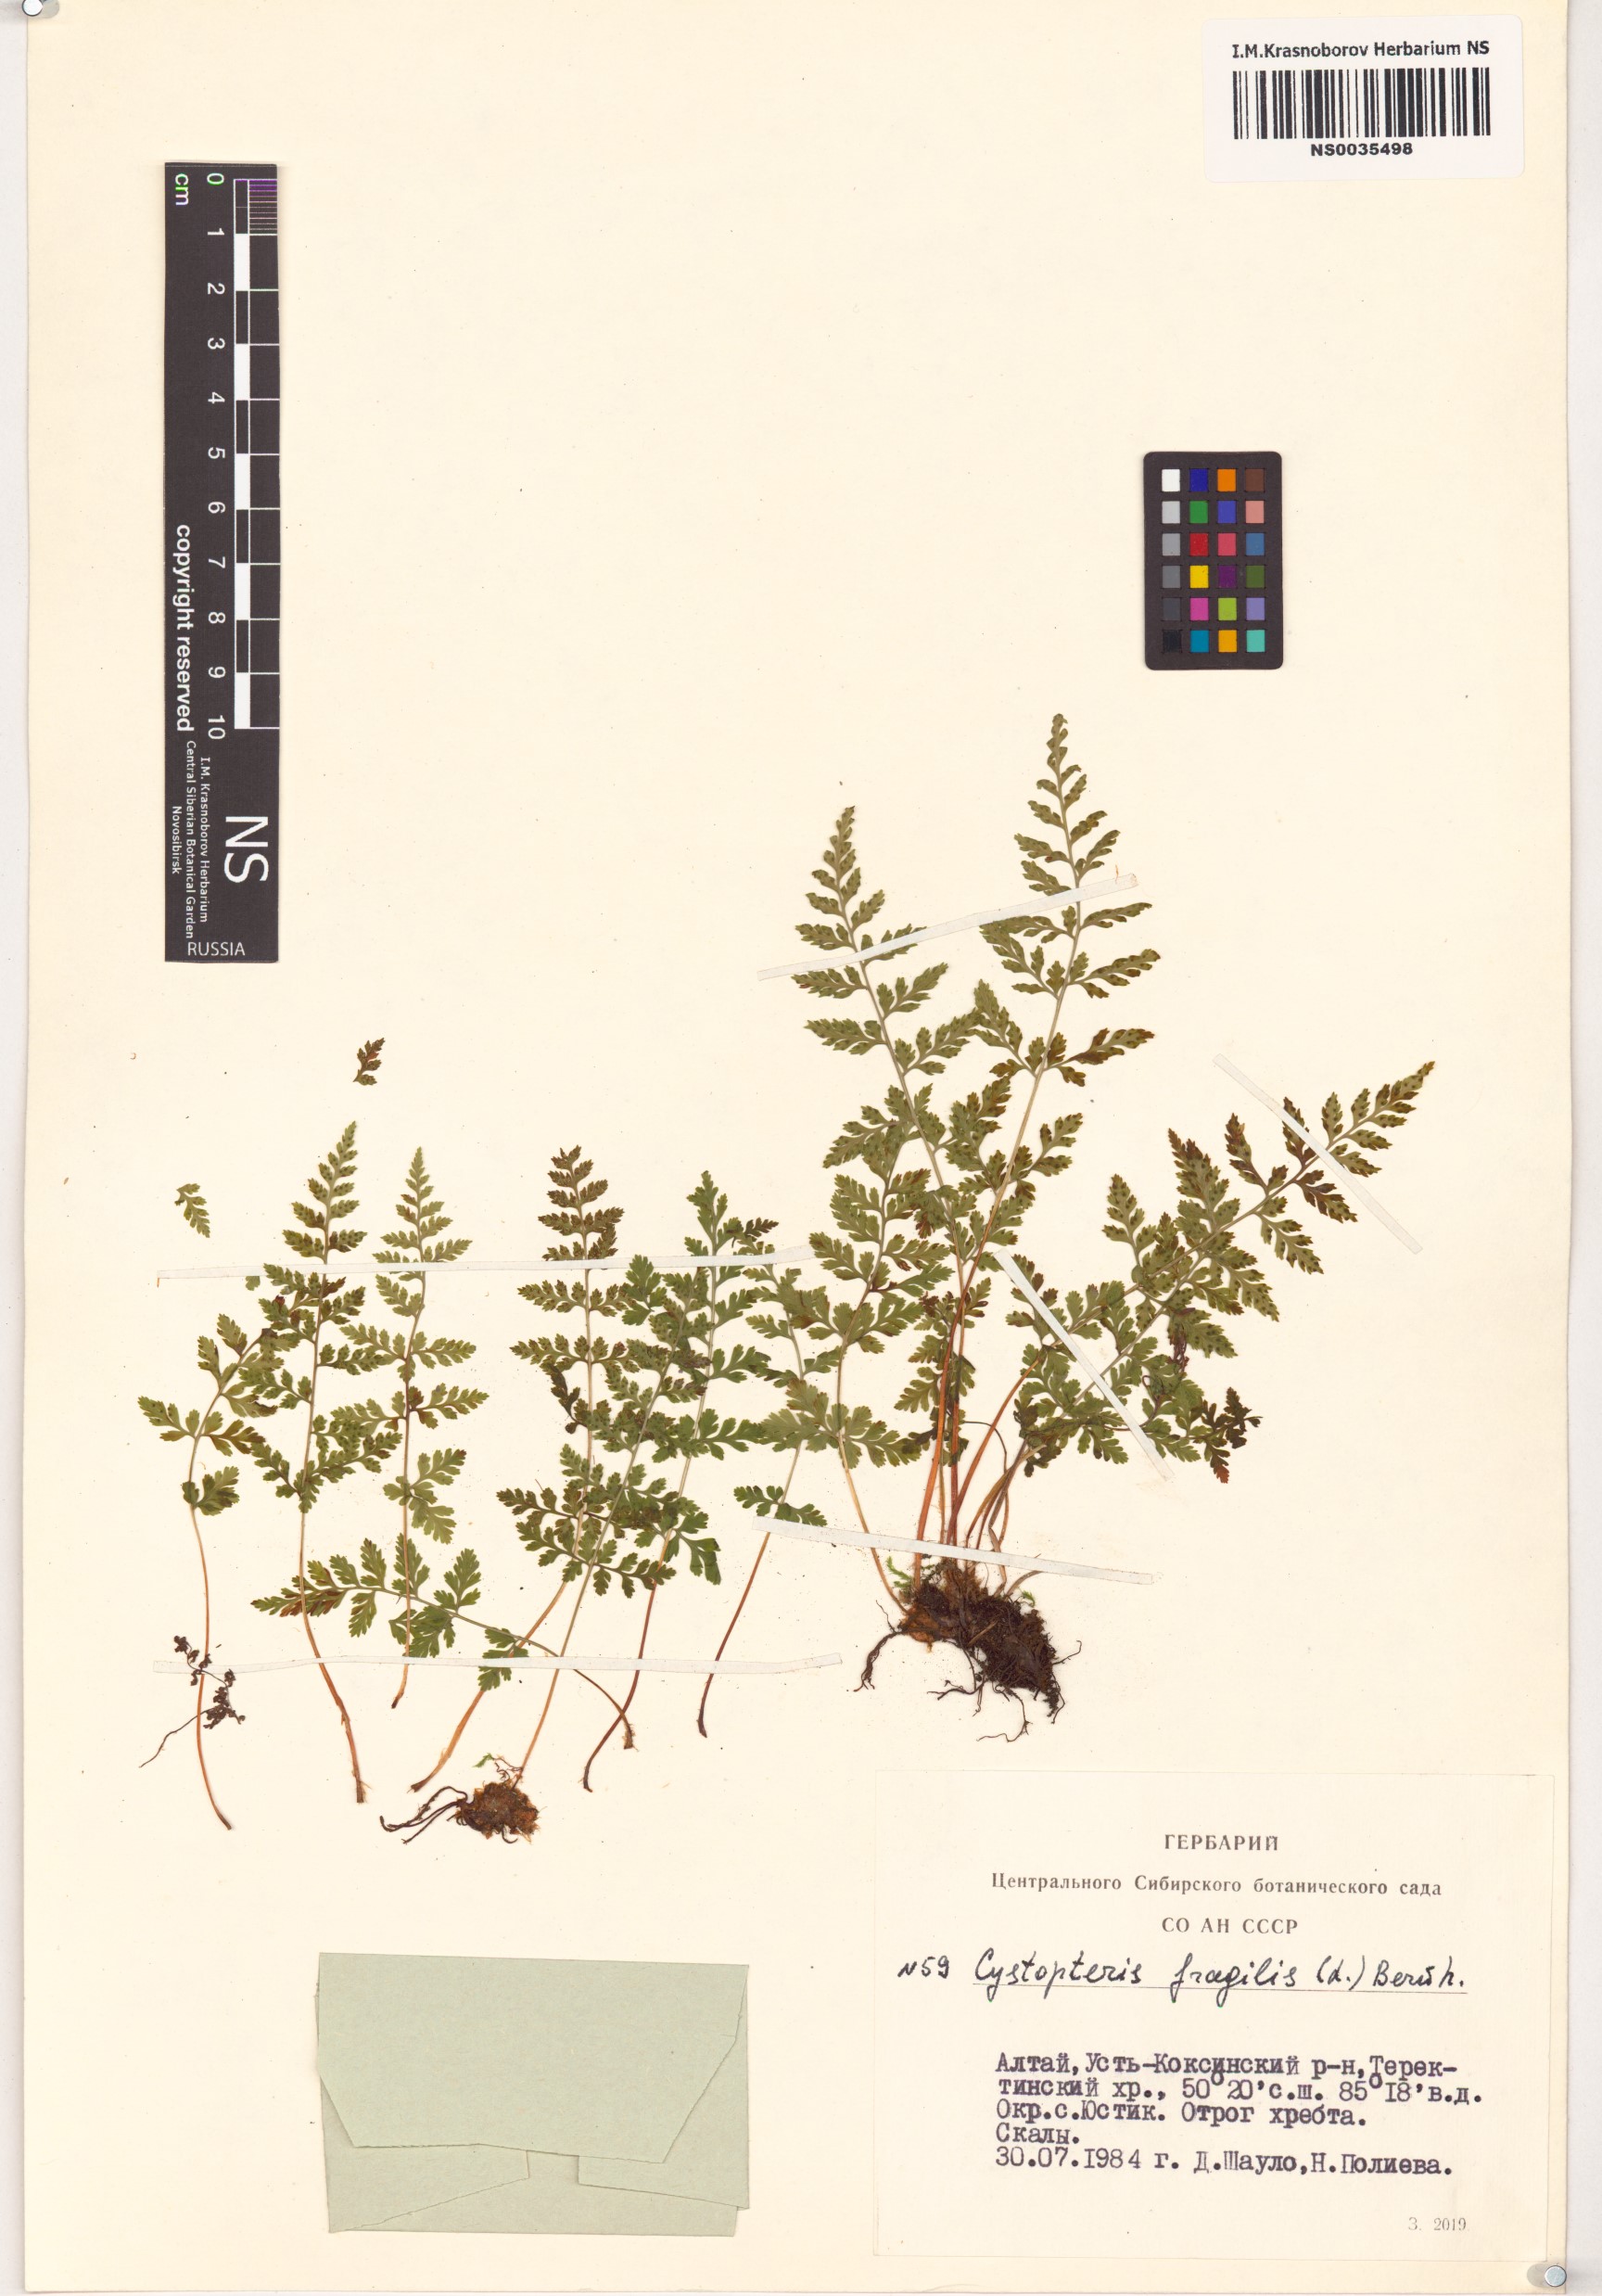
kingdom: Plantae
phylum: Tracheophyta
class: Polypodiopsida
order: Polypodiales
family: Cystopteridaceae
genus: Cystopteris
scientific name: Cystopteris fragilis
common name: Brittle bladder fern
